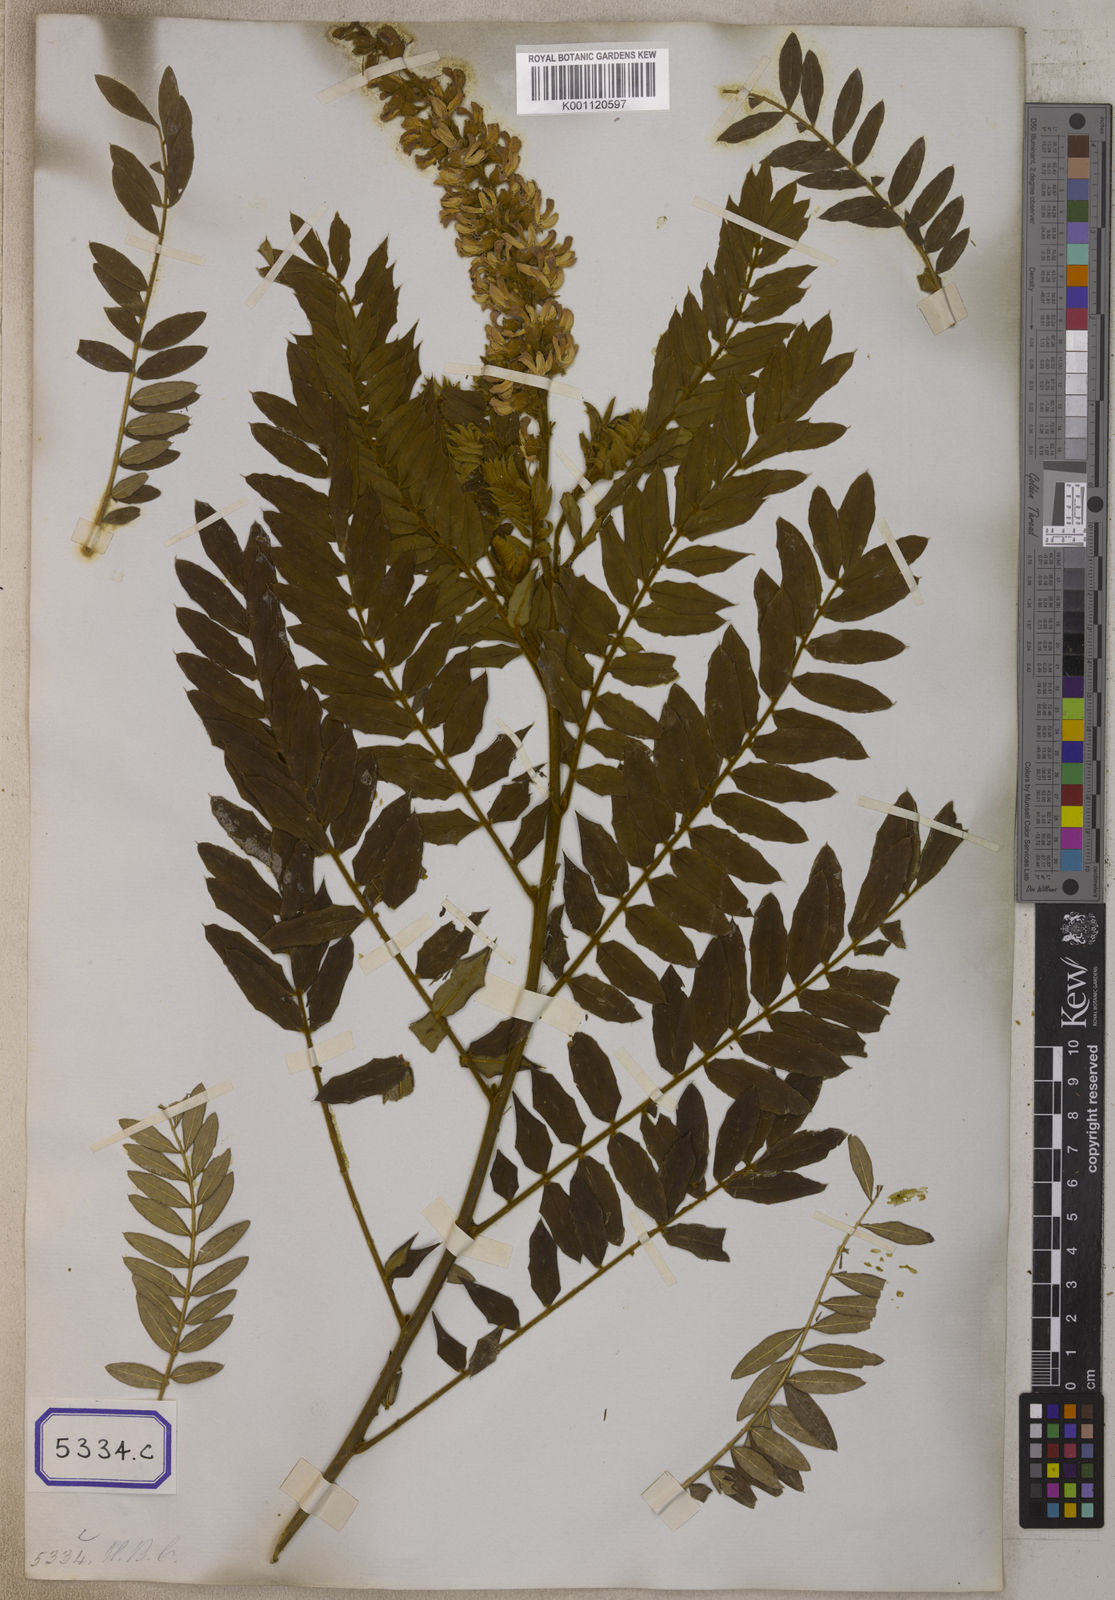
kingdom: Plantae
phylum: Tracheophyta
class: Magnoliopsida
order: Fabales
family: Fabaceae
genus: Baptisia
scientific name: Baptisia alba
